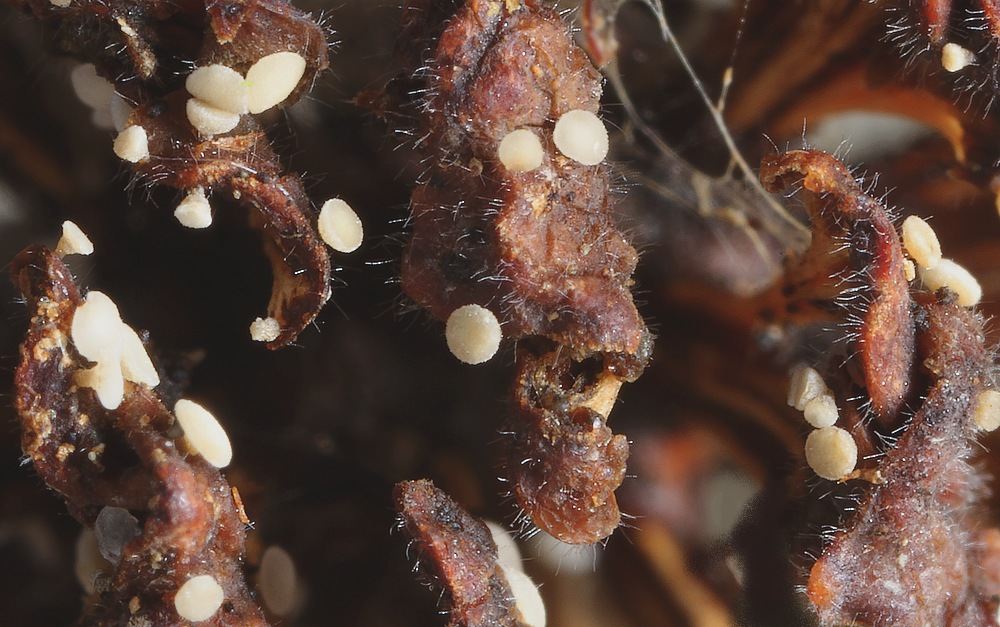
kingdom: Fungi
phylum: Ascomycota
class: Leotiomycetes
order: Helotiales
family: Pezizellaceae
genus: Calycina
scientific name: Calycina alniella
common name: ellekogle-stilkskive
